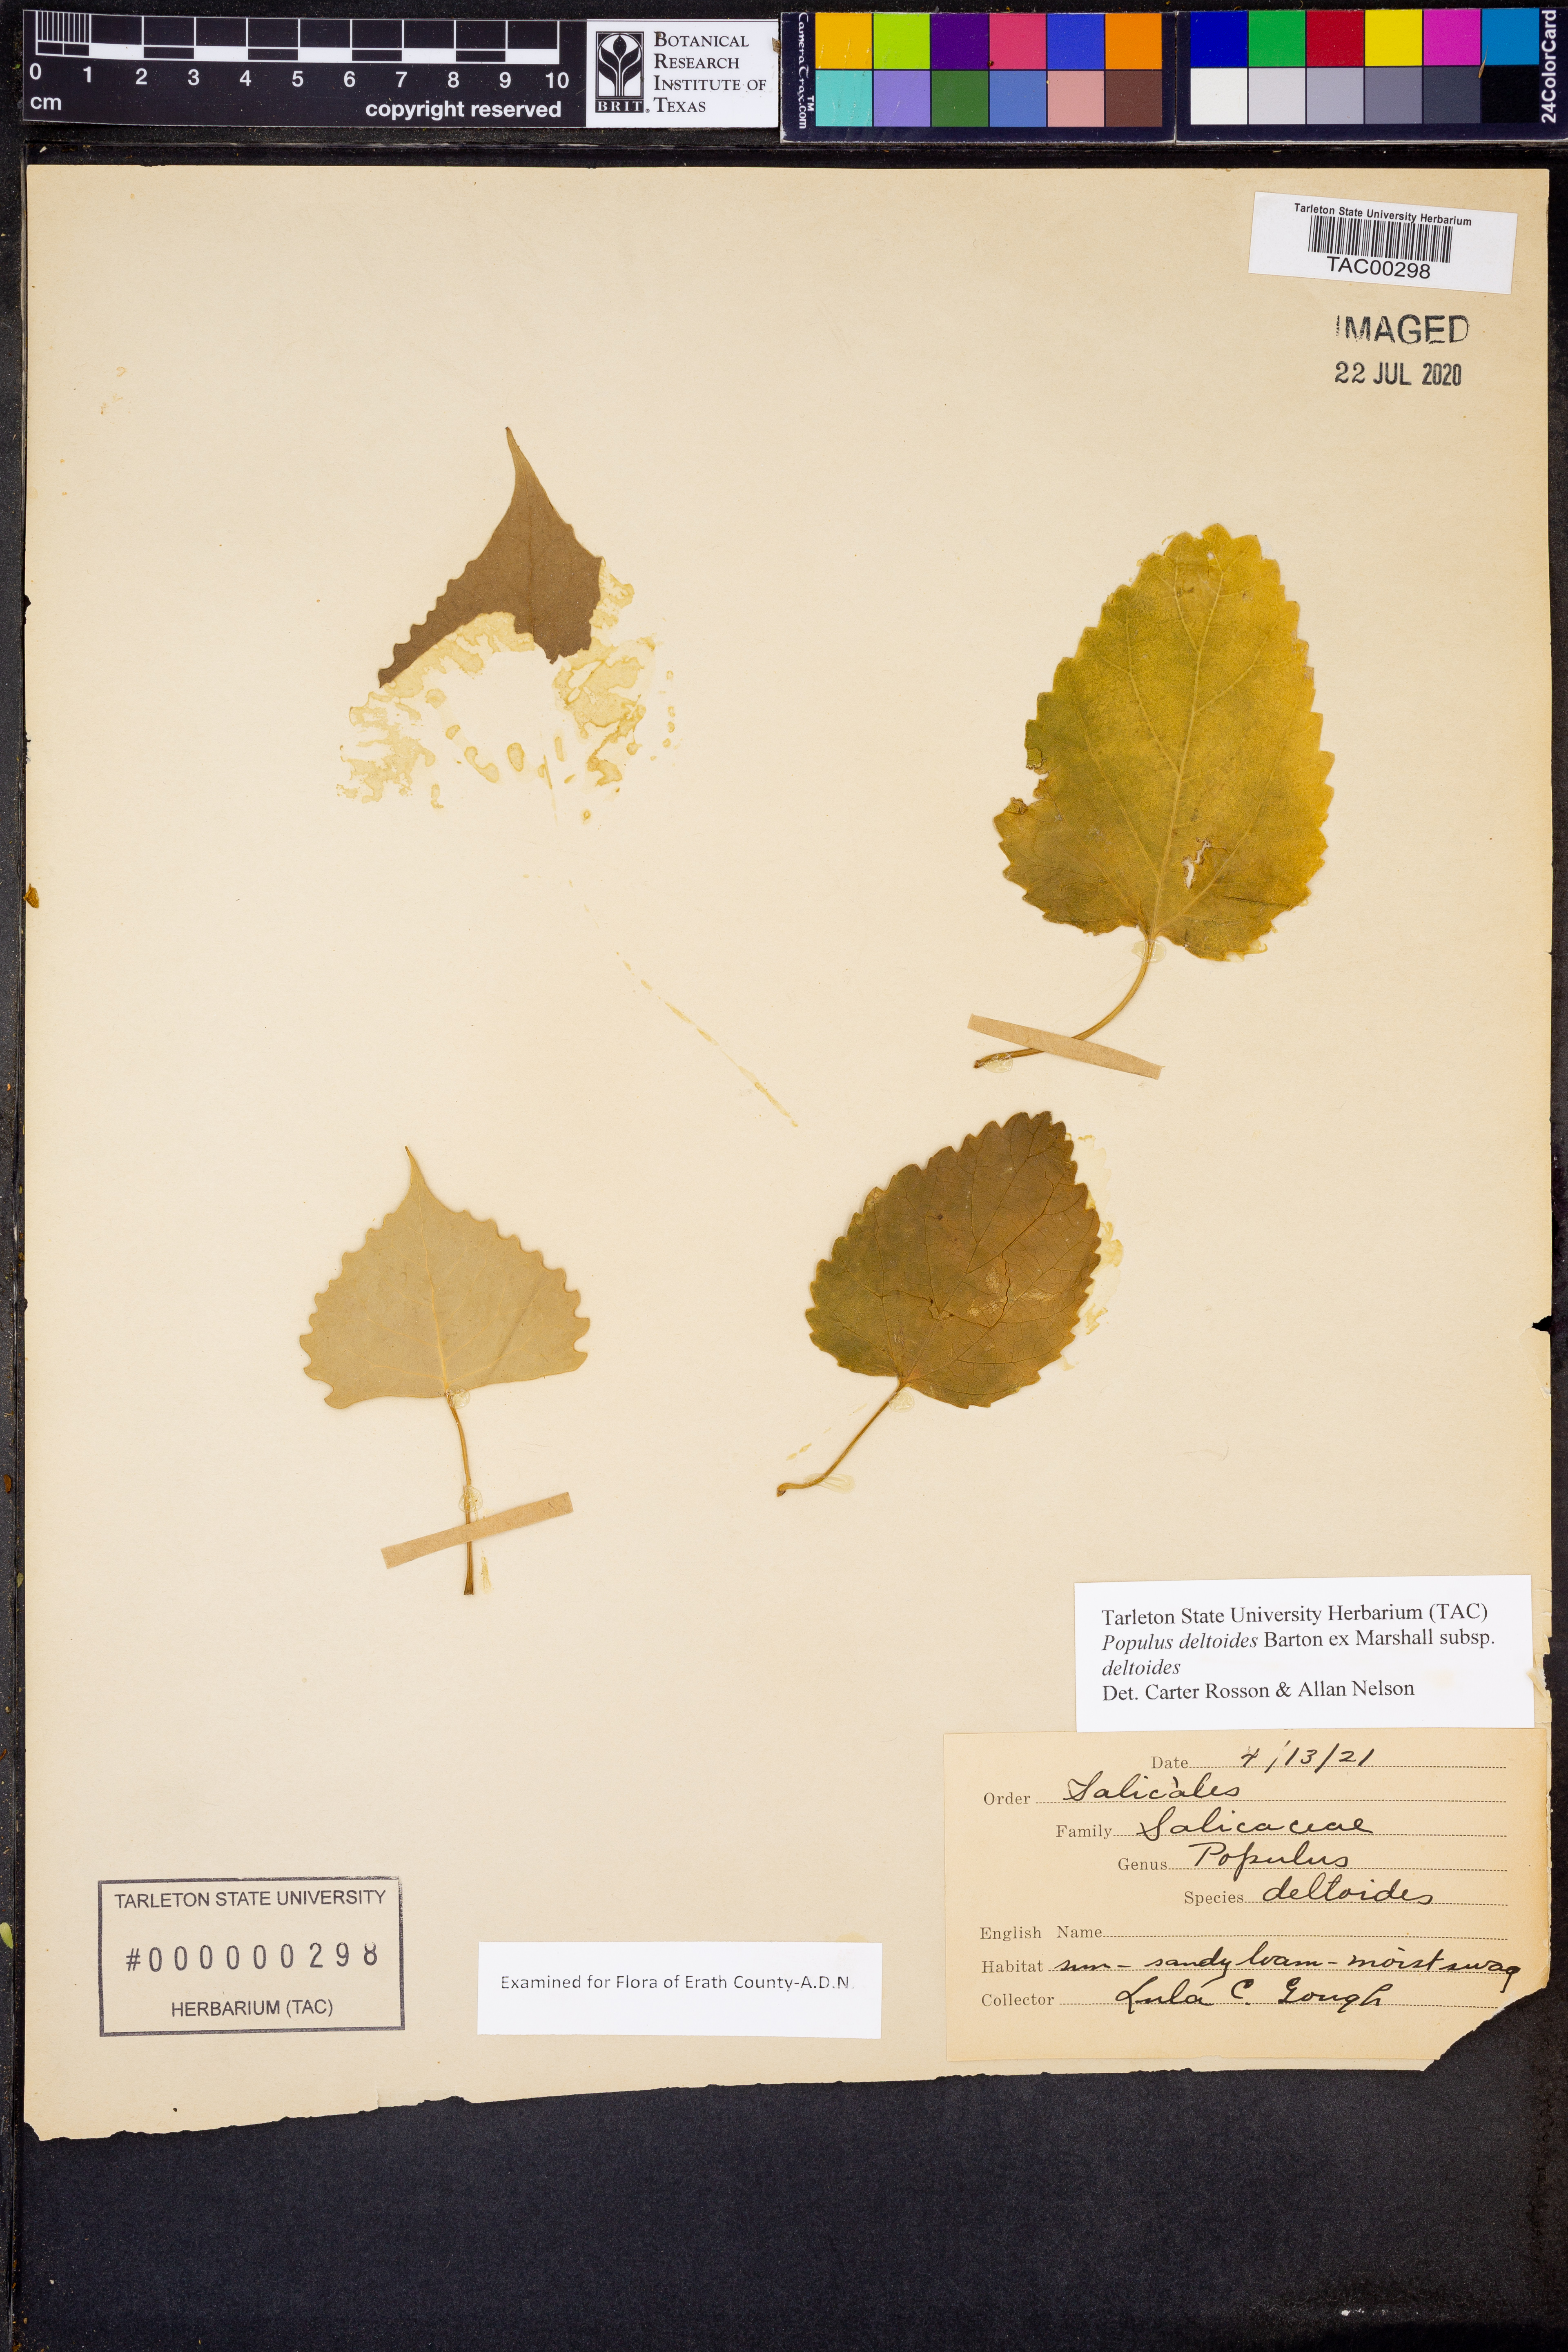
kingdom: Plantae
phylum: Tracheophyta
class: Magnoliopsida
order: Malpighiales
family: Salicaceae
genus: Populus
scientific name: Populus deltoides
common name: Eastern cottonwood
